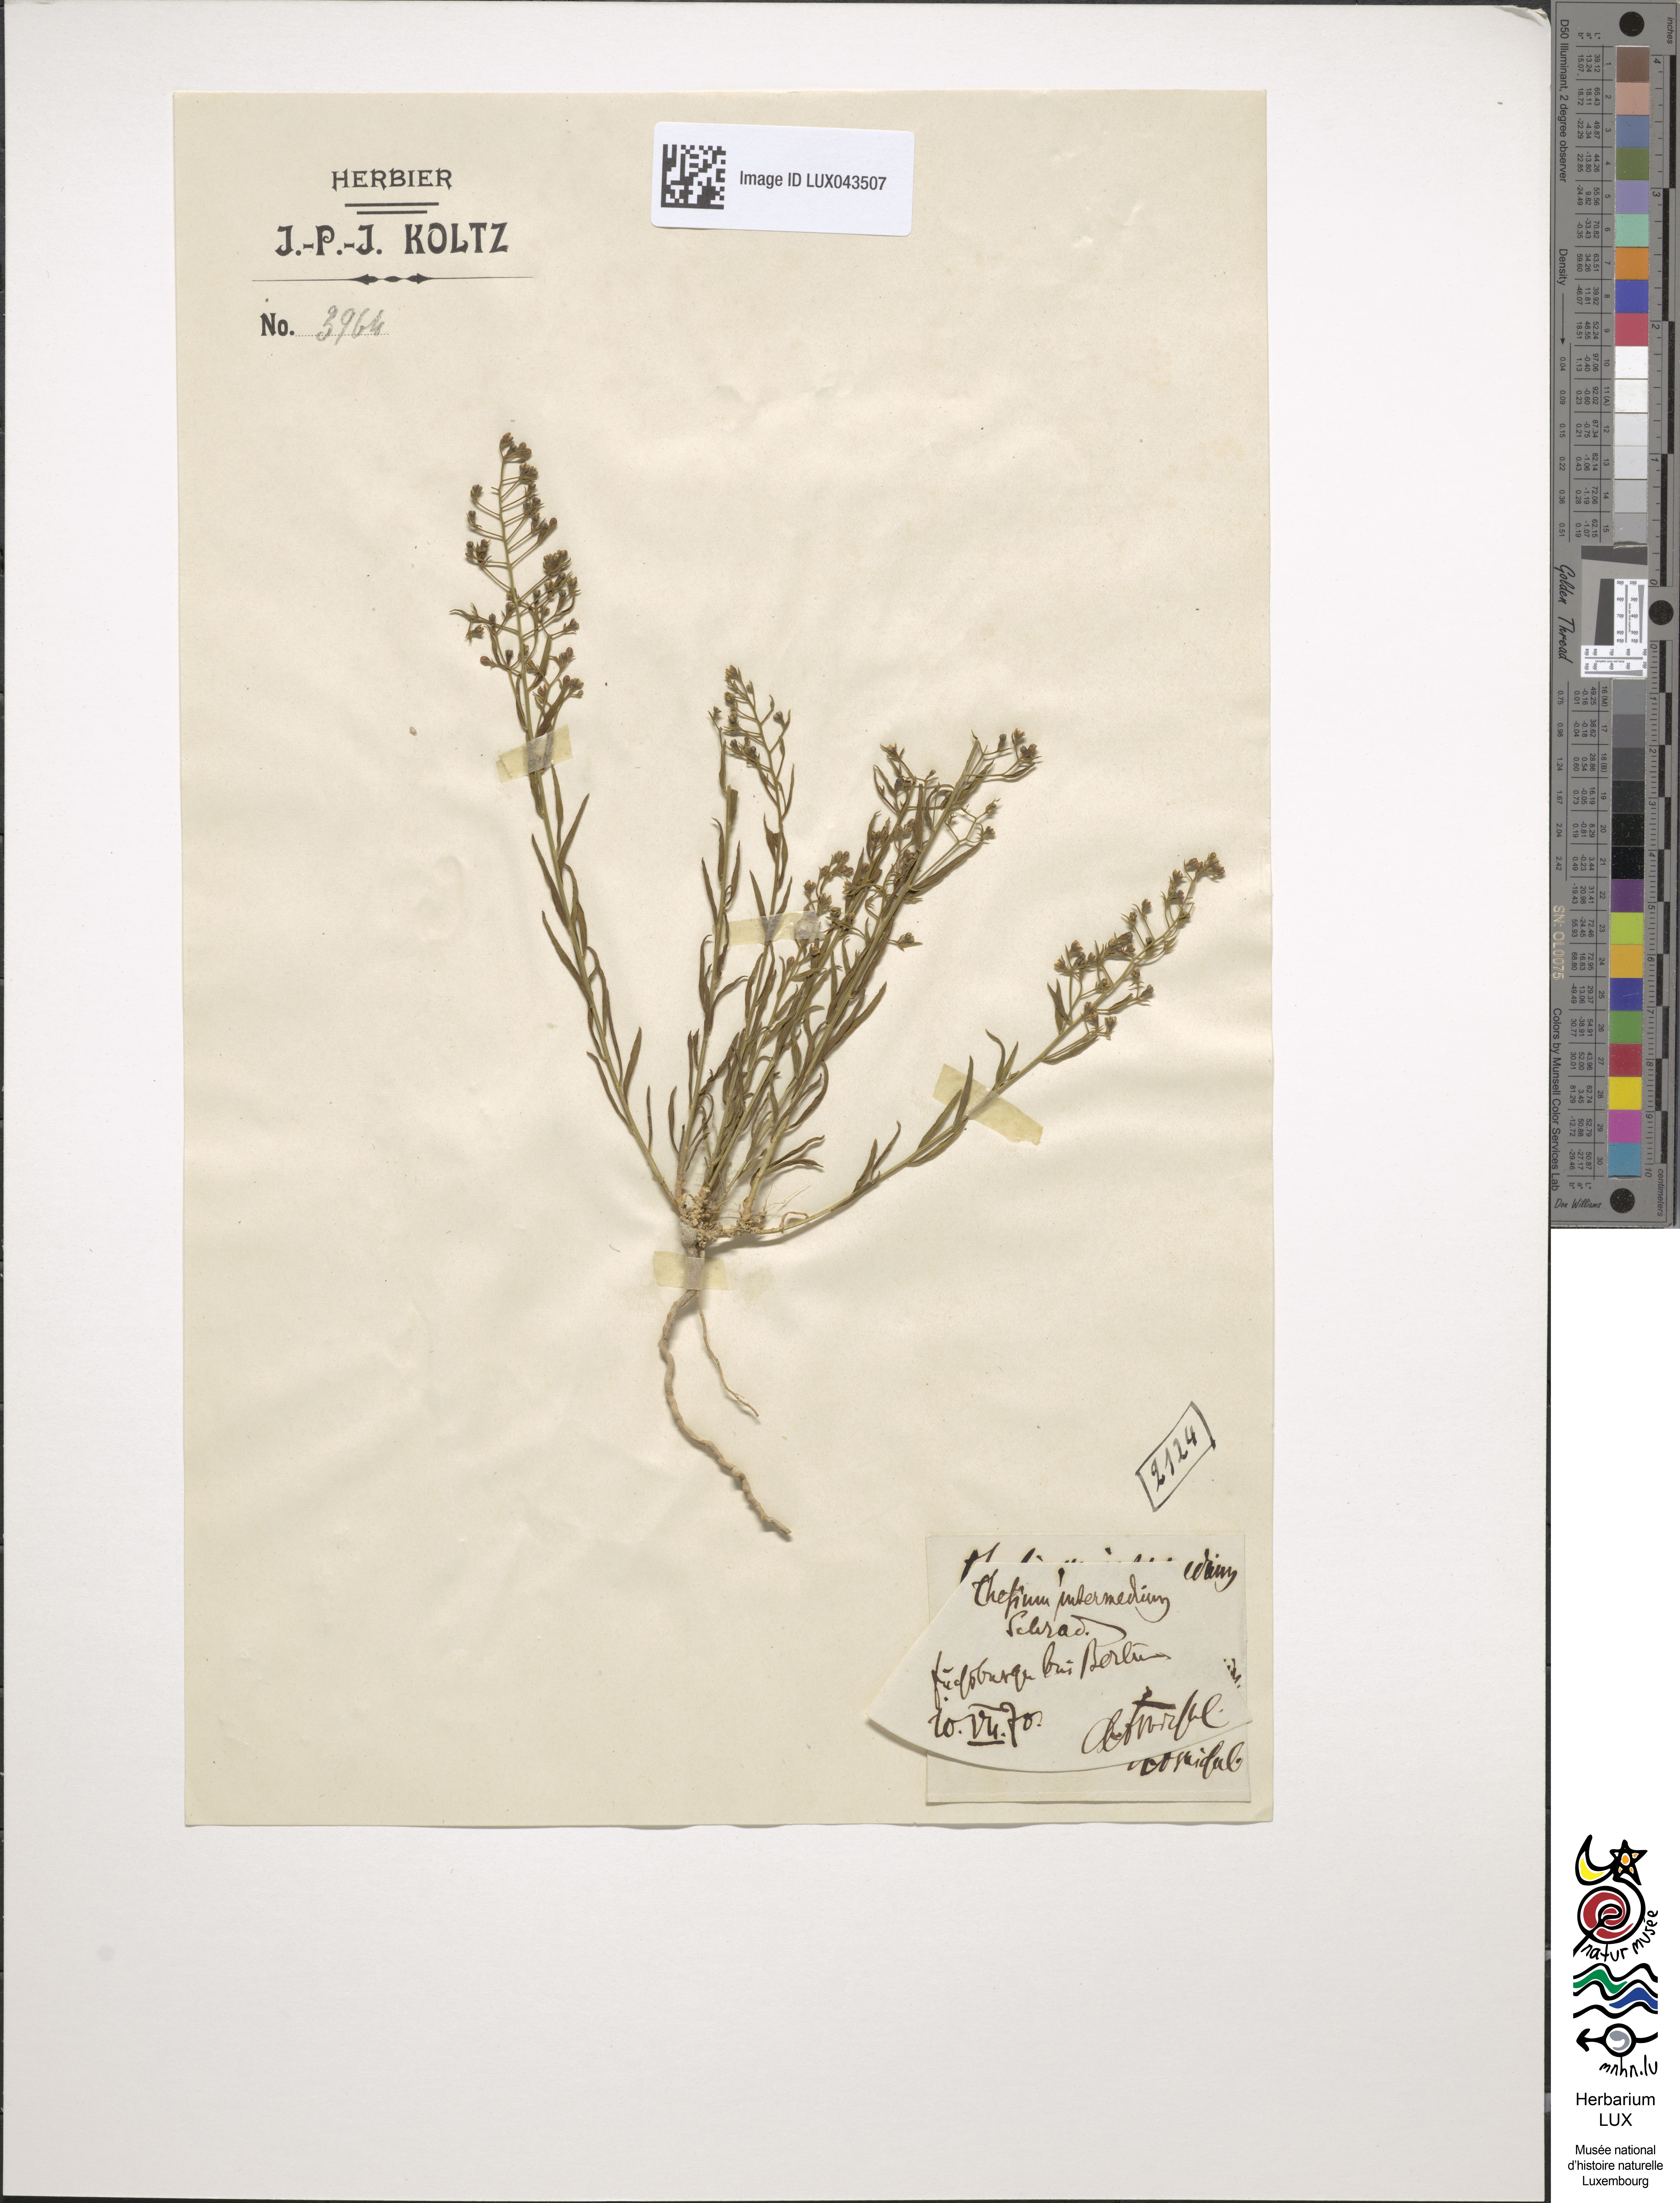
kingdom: Plantae
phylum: Tracheophyta
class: Magnoliopsida
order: Santalales
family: Thesiaceae
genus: Thesium
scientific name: Thesium linophyllon
